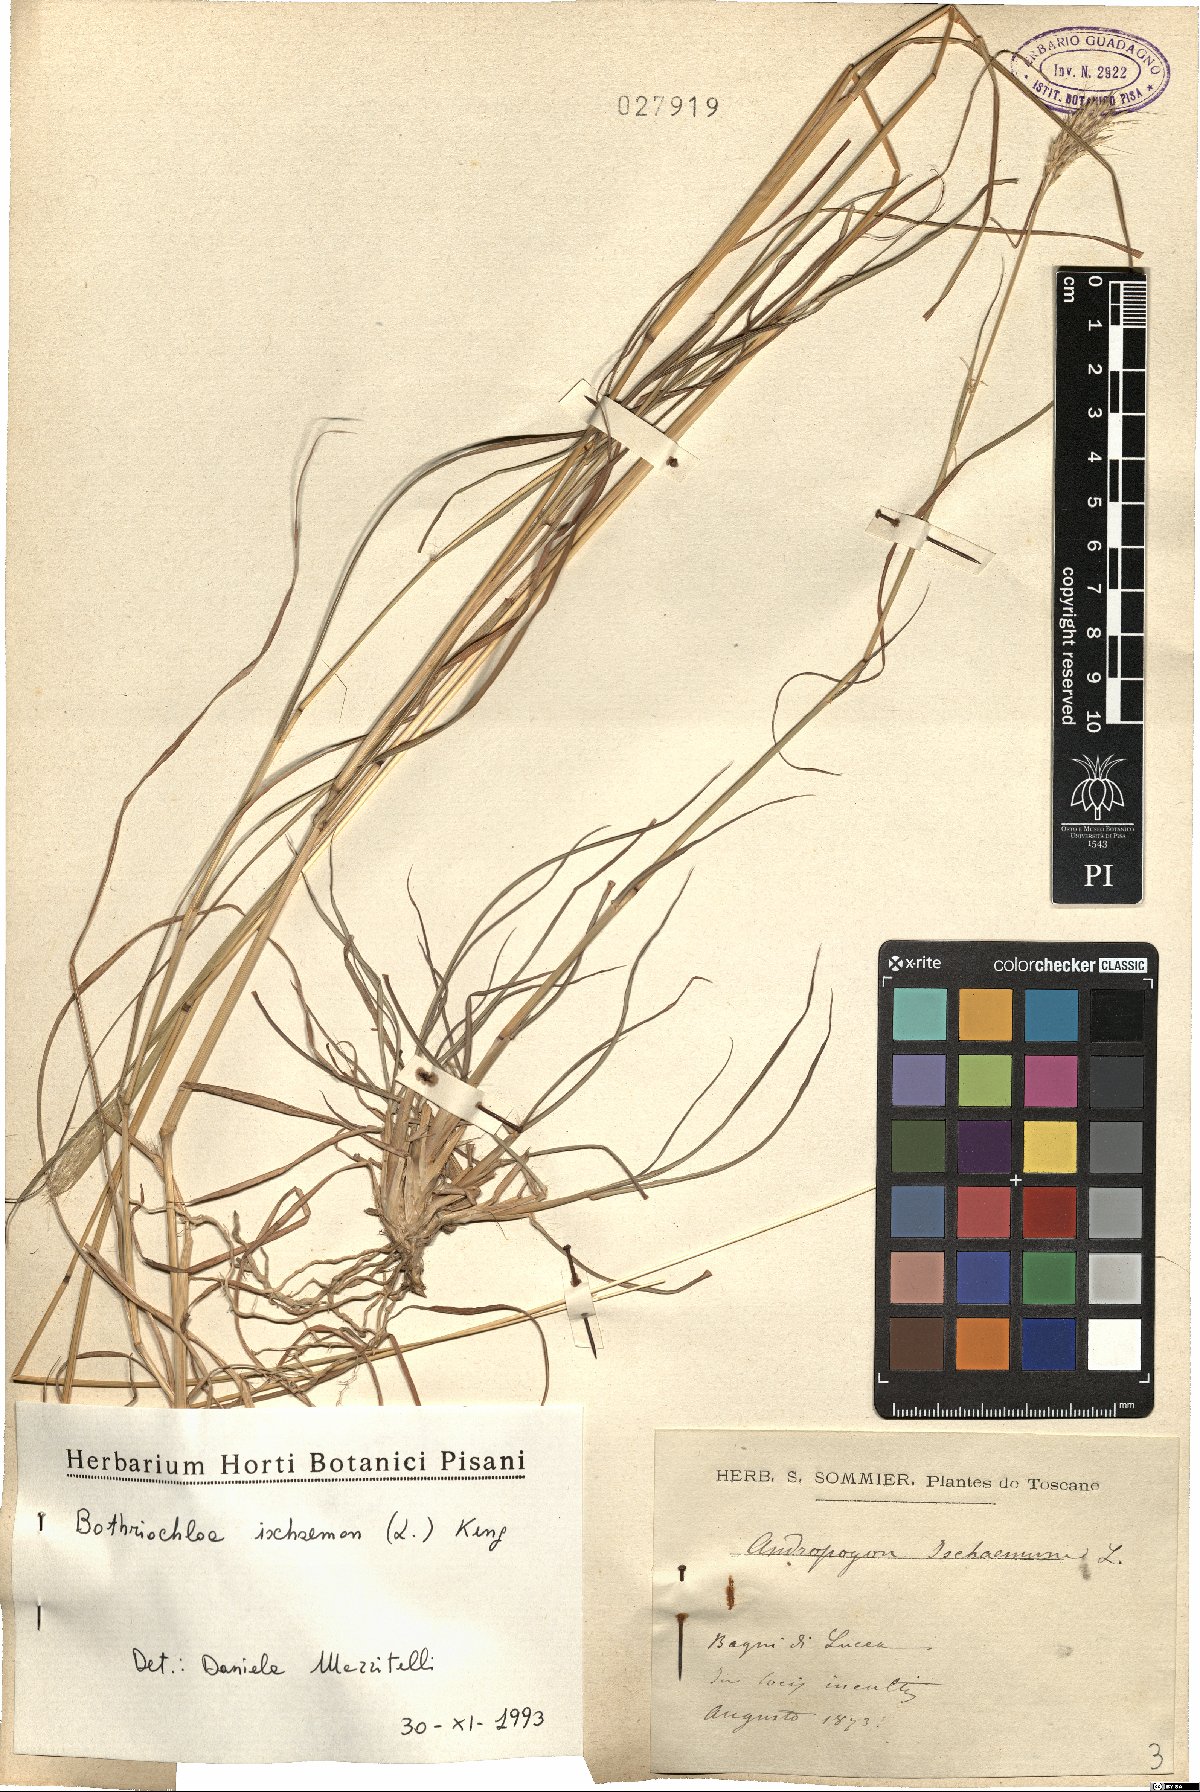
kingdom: Plantae
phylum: Tracheophyta
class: Liliopsida
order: Poales
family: Poaceae
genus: Bothriochloa
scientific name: Bothriochloa ischaemum
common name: Yellow bluestem
